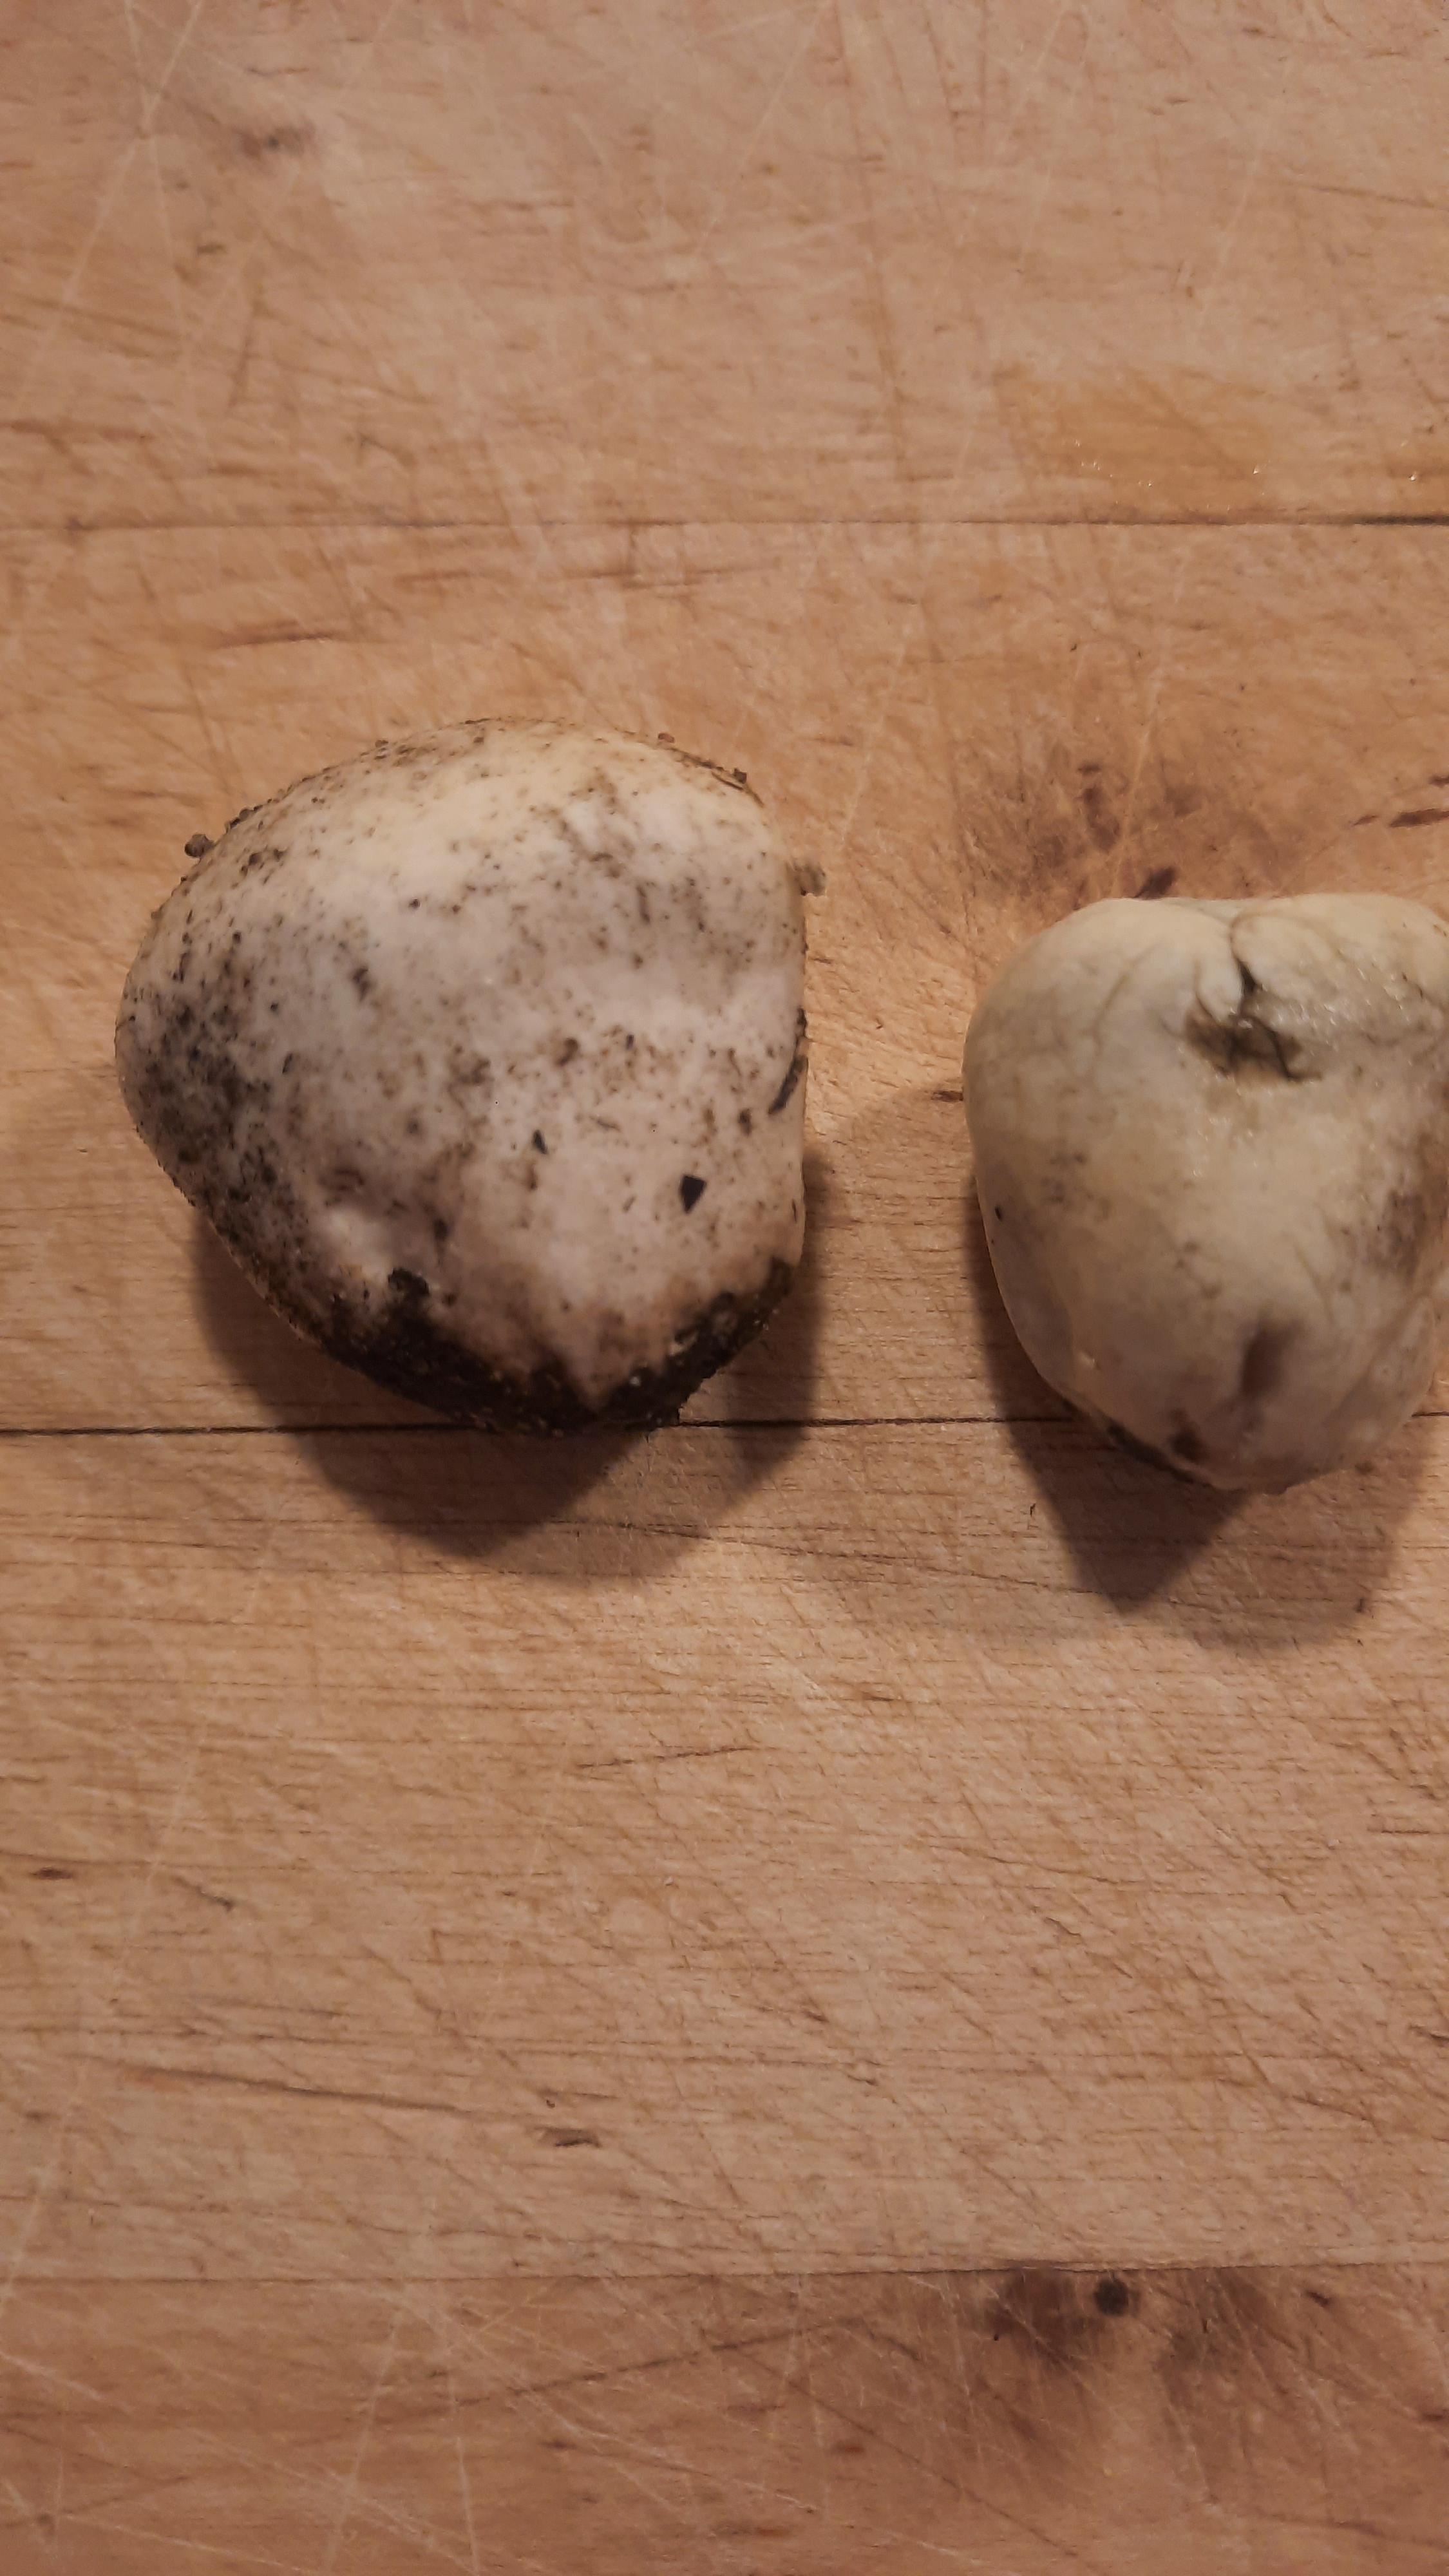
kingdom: Fungi
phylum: Basidiomycota
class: Agaricomycetes
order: Agaricales
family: Lycoperdaceae
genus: Lycoperdon
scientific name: Lycoperdon pratense
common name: flad støvbold
